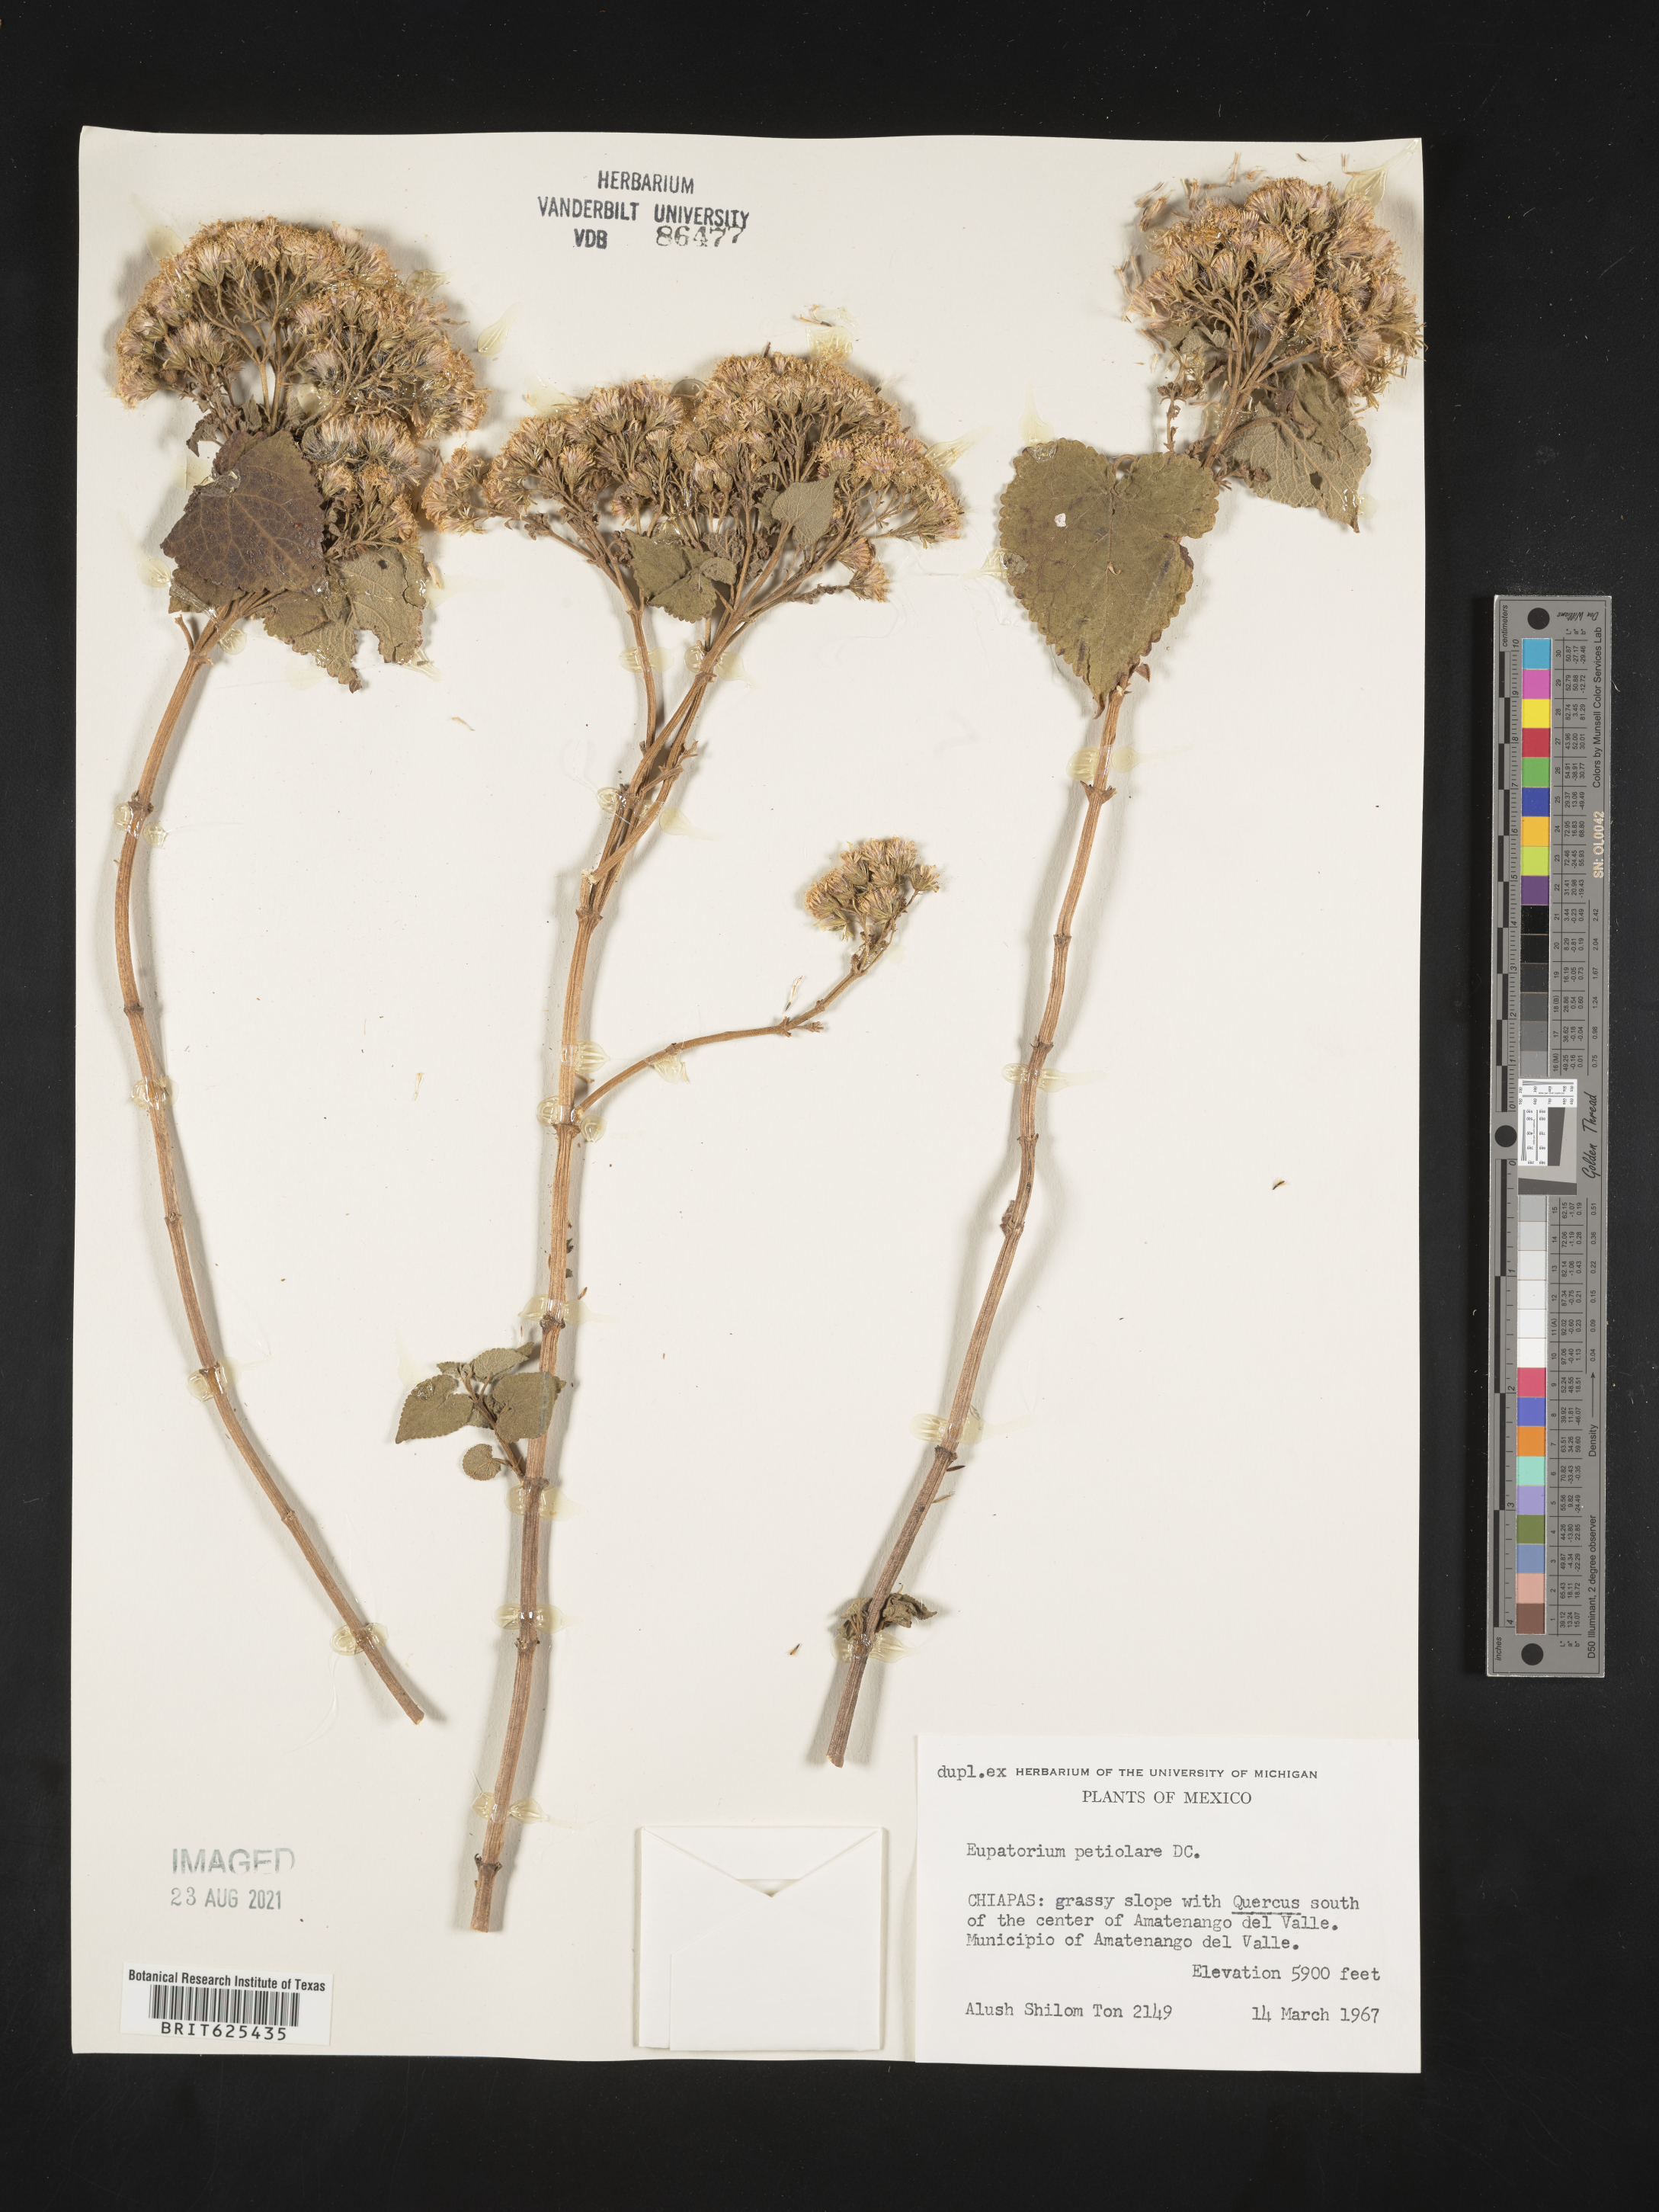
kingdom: Plantae
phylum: Tracheophyta
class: Magnoliopsida
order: Asterales
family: Asteraceae
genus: Ageratina
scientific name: Ageratina petiolaris
